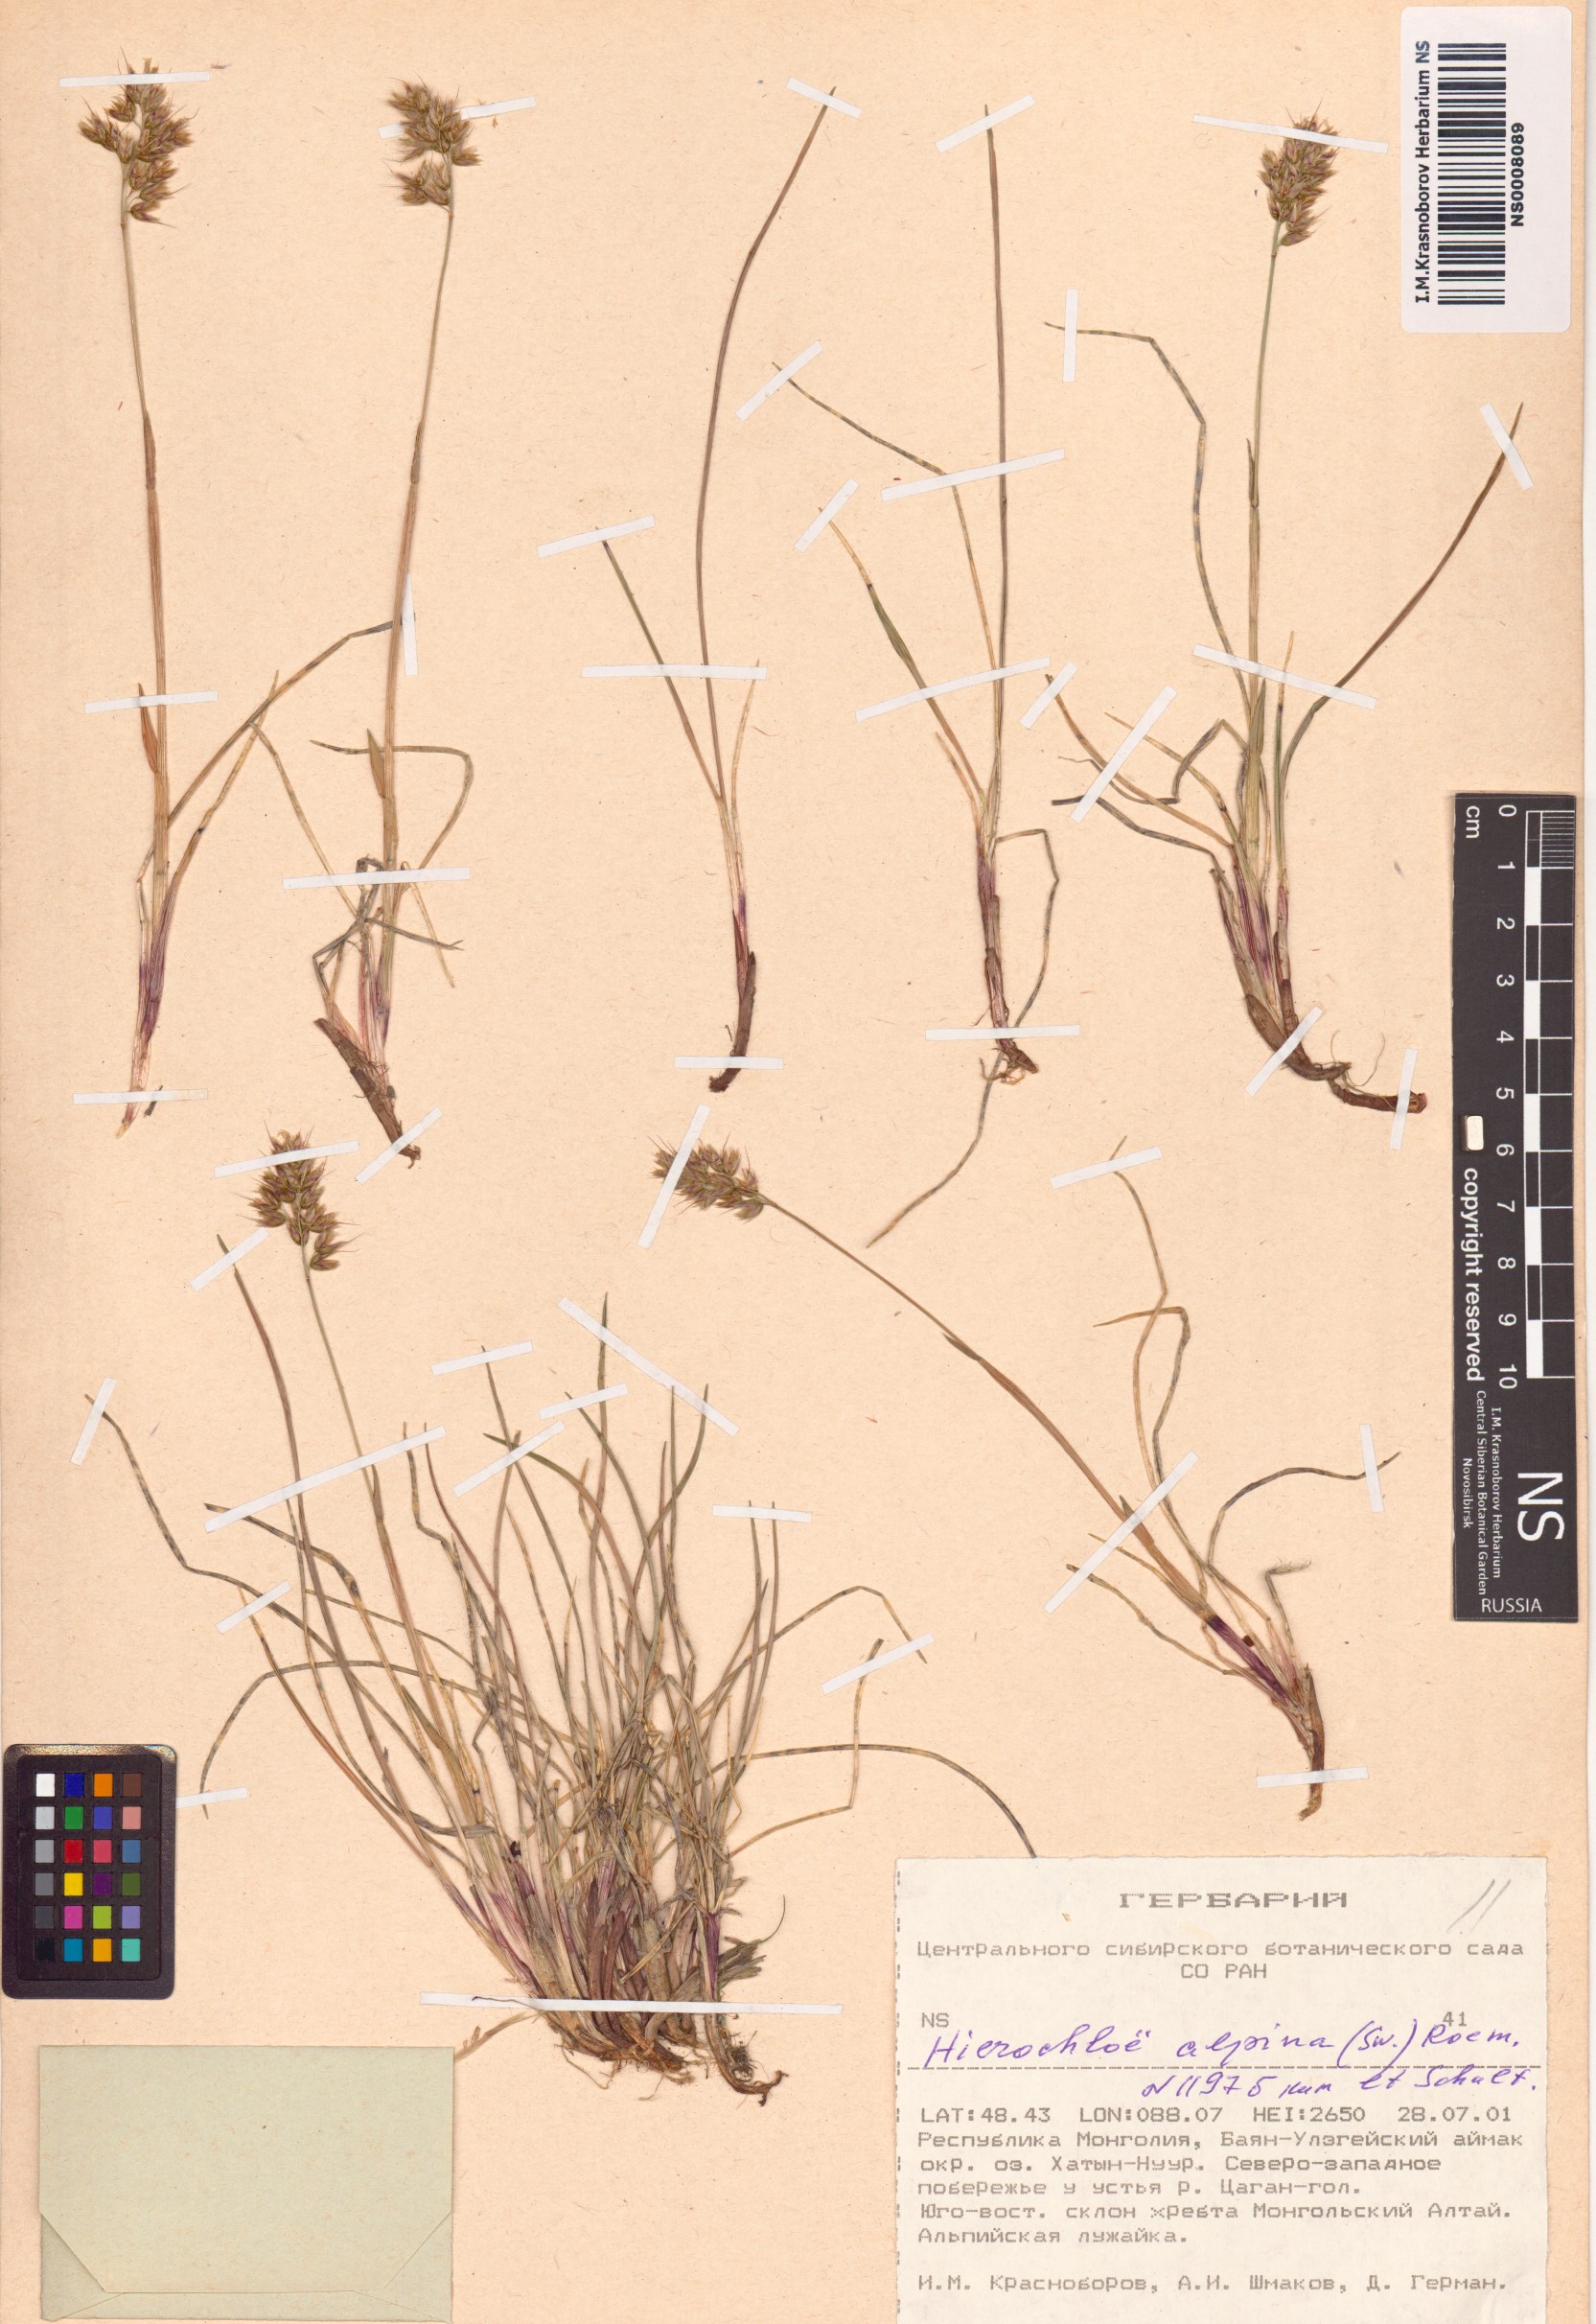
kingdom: Plantae
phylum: Tracheophyta
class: Liliopsida
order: Poales
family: Poaceae
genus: Anthoxanthum
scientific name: Anthoxanthum monticola
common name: Alpine sweetgrass
